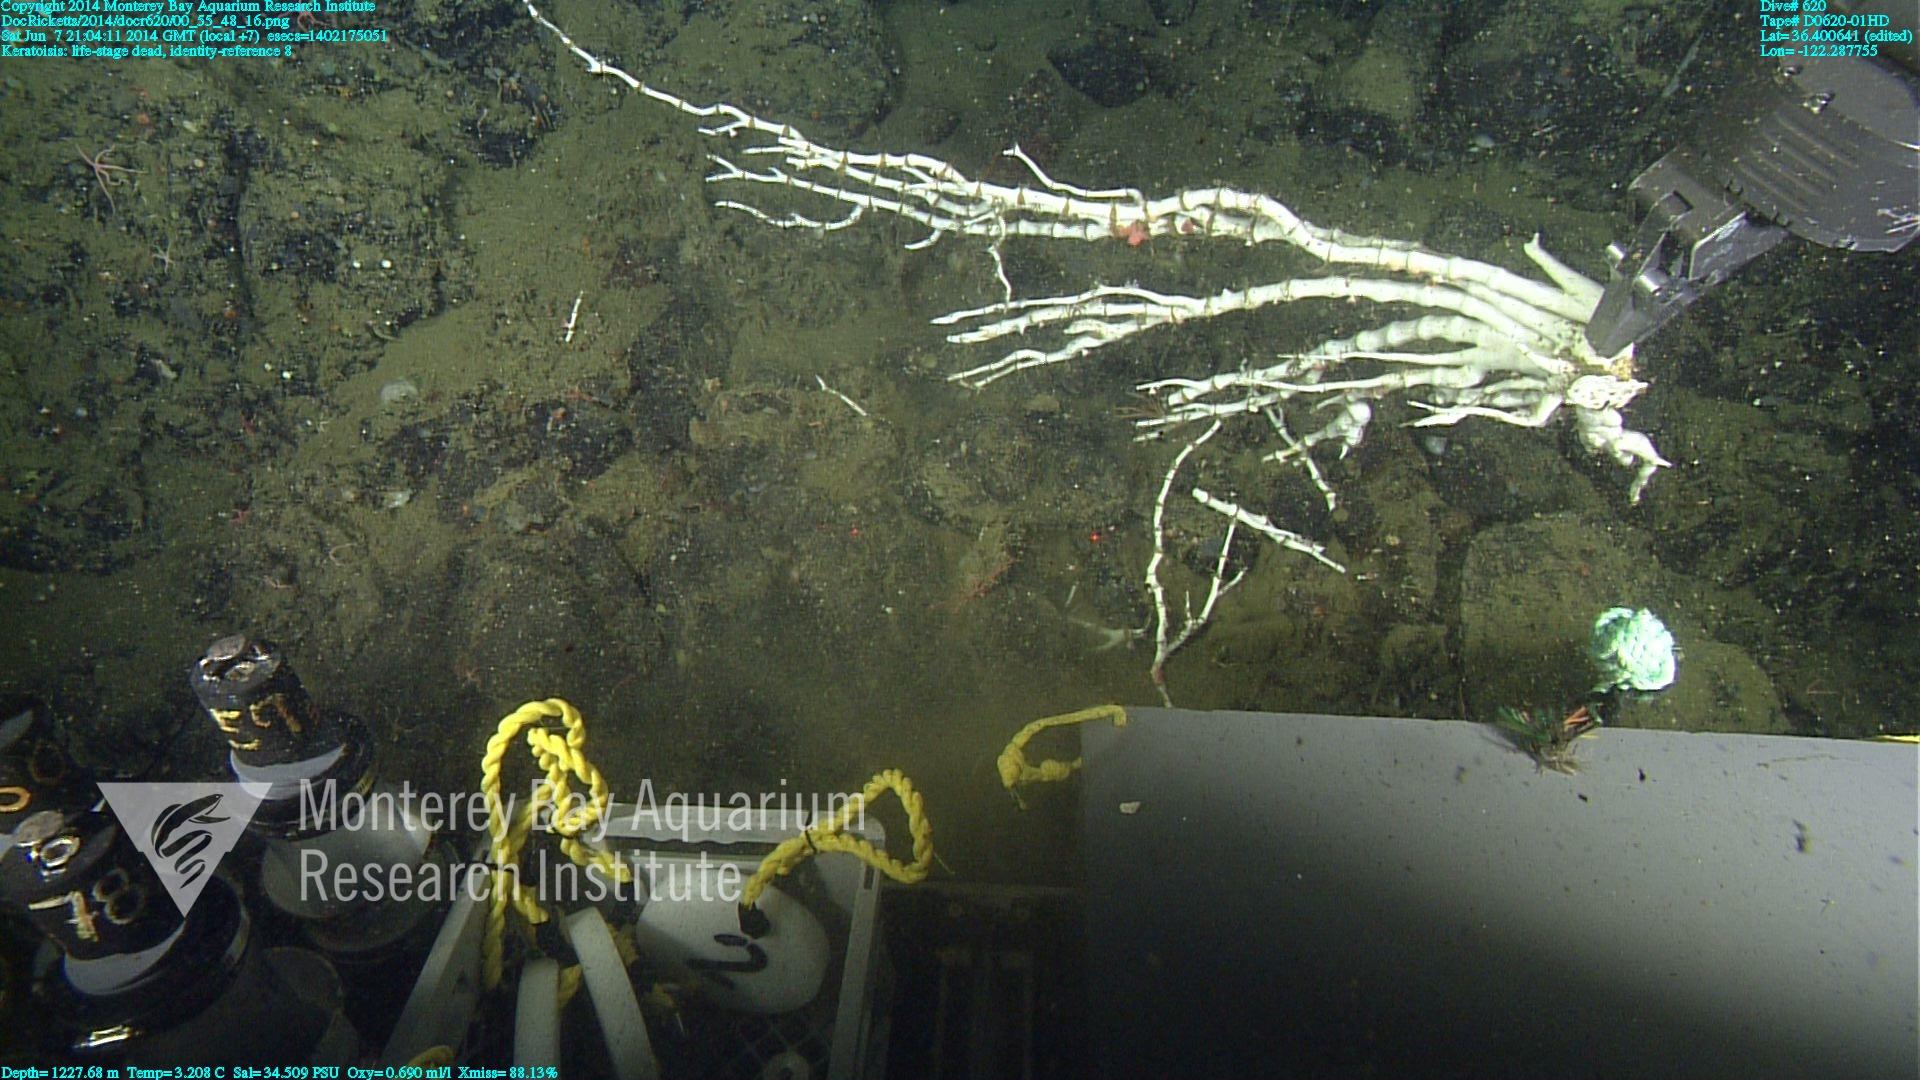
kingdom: Animalia
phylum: Cnidaria
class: Anthozoa
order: Scleralcyonacea
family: Keratoisididae
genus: Keratoisis
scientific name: Keratoisis
